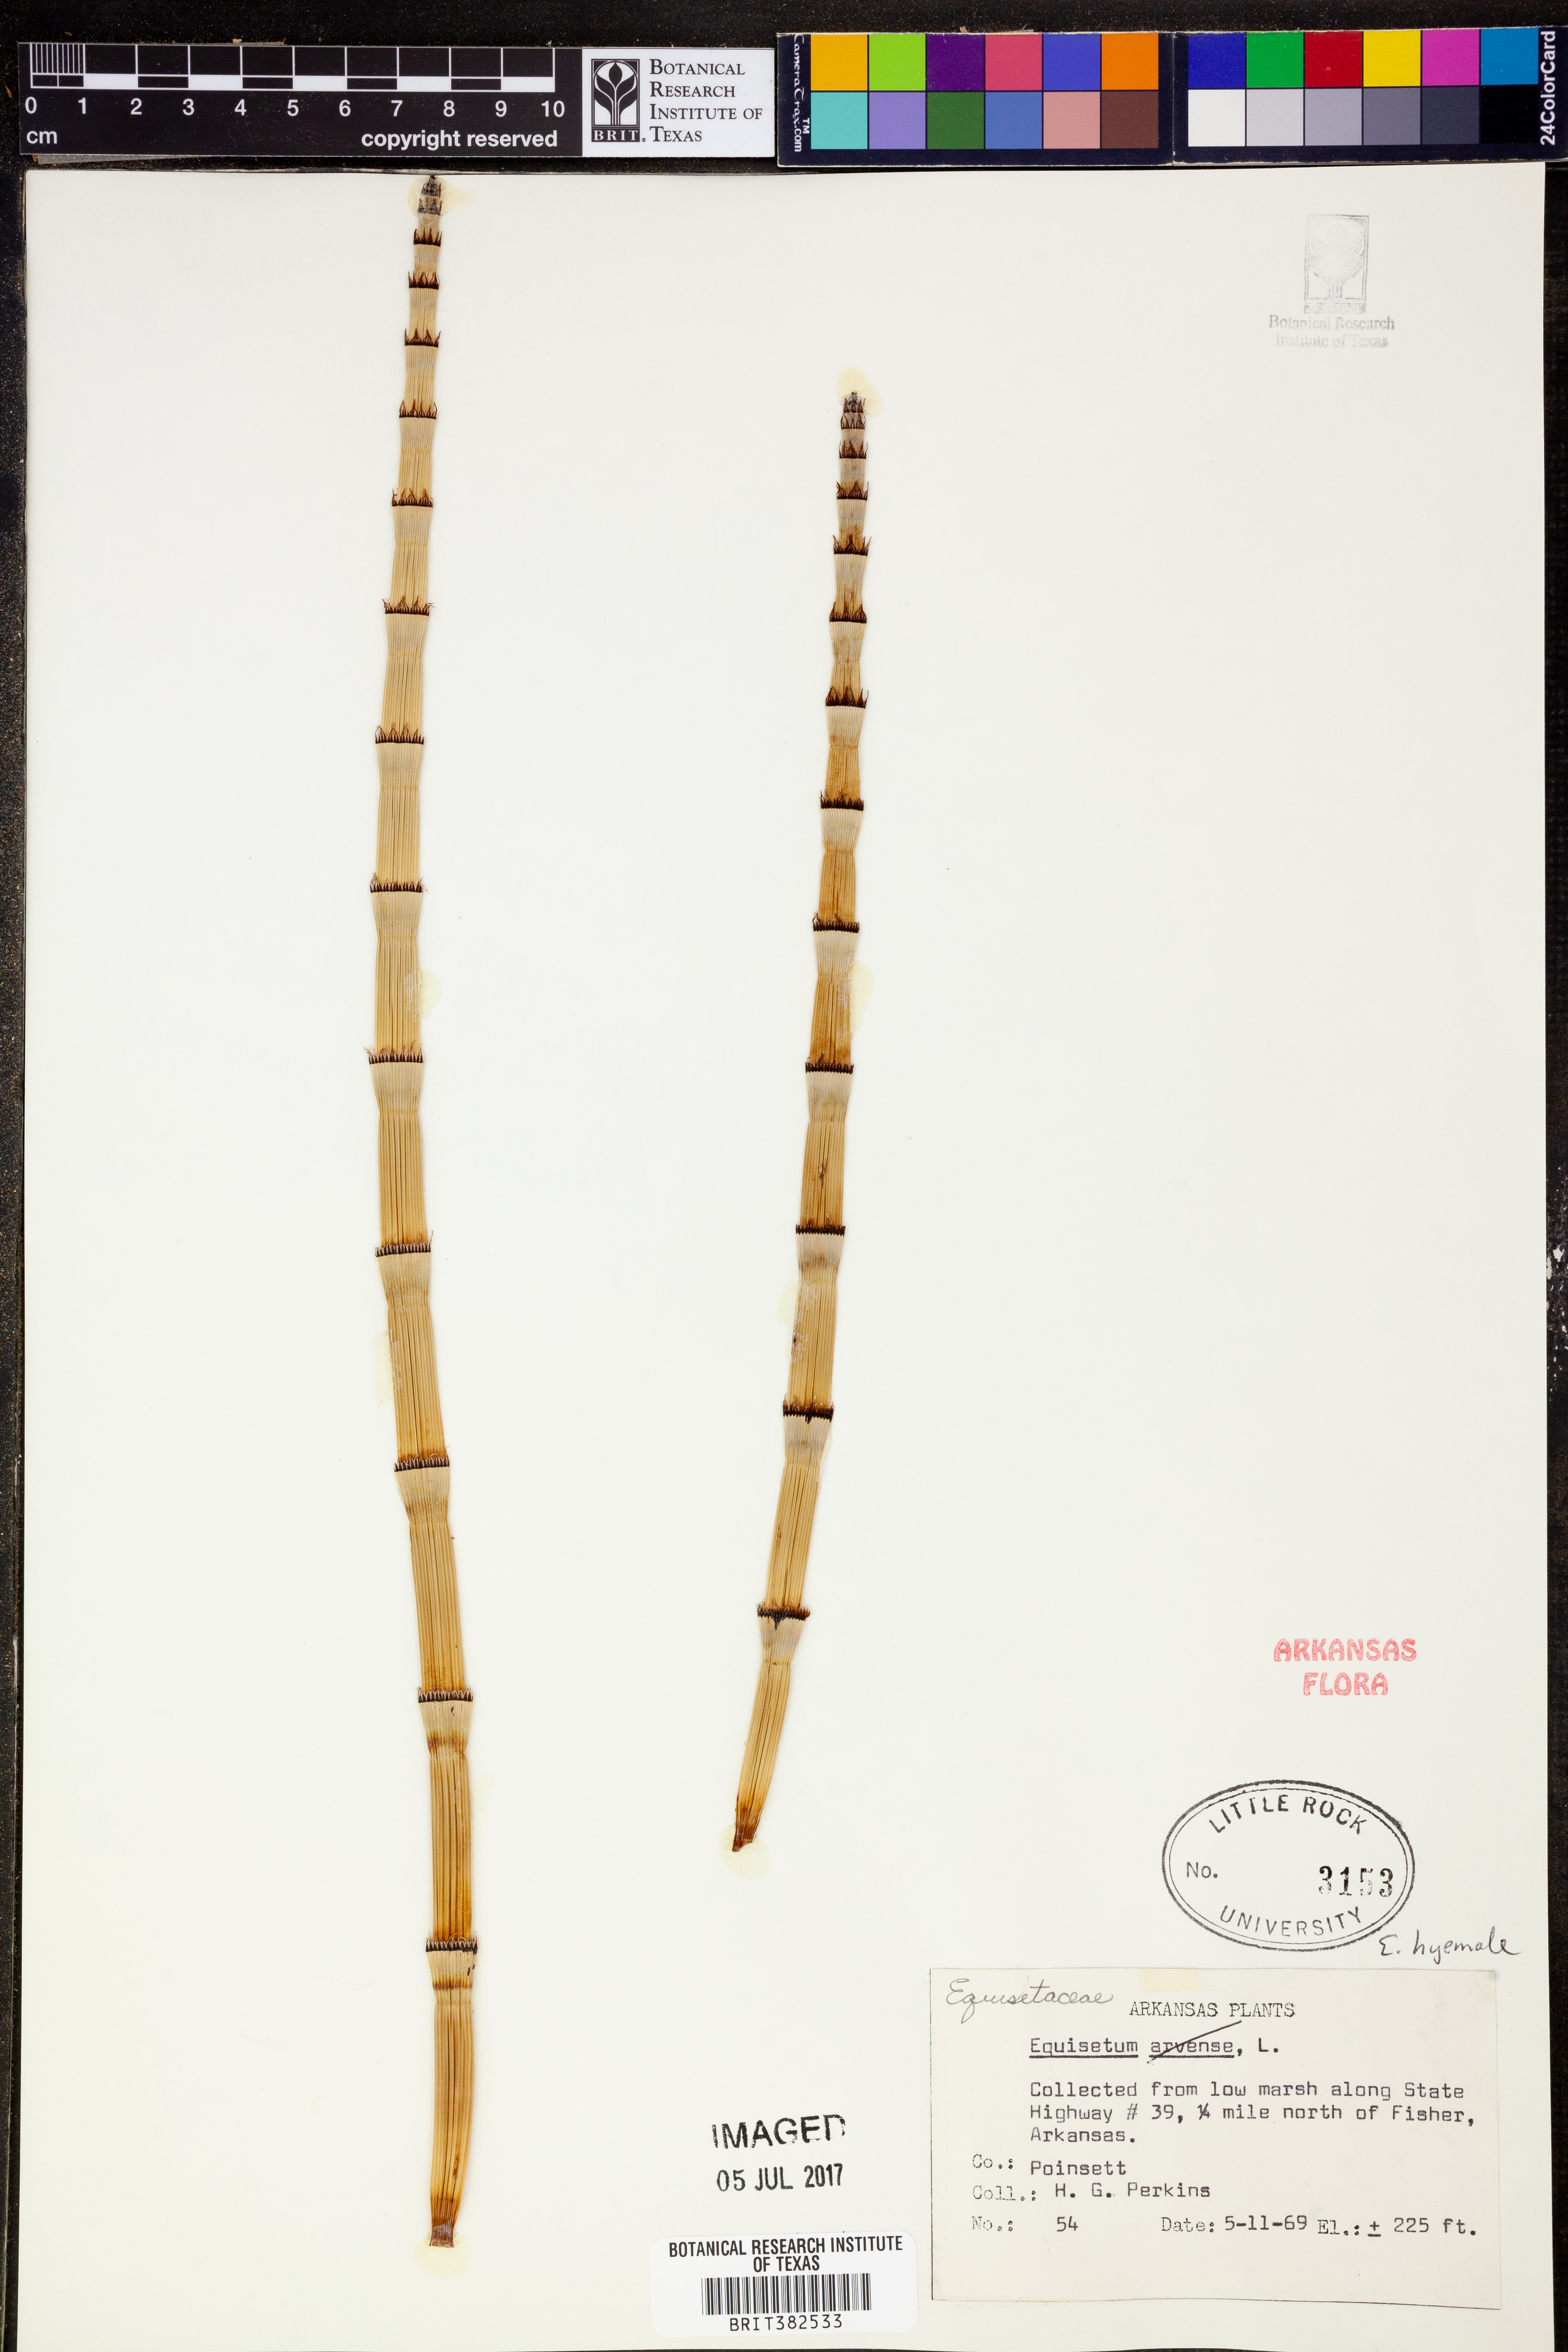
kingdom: Plantae
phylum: Tracheophyta
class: Polypodiopsida
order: Equisetales
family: Equisetaceae
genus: Equisetum
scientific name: Equisetum hyemale
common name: Rough horsetail
